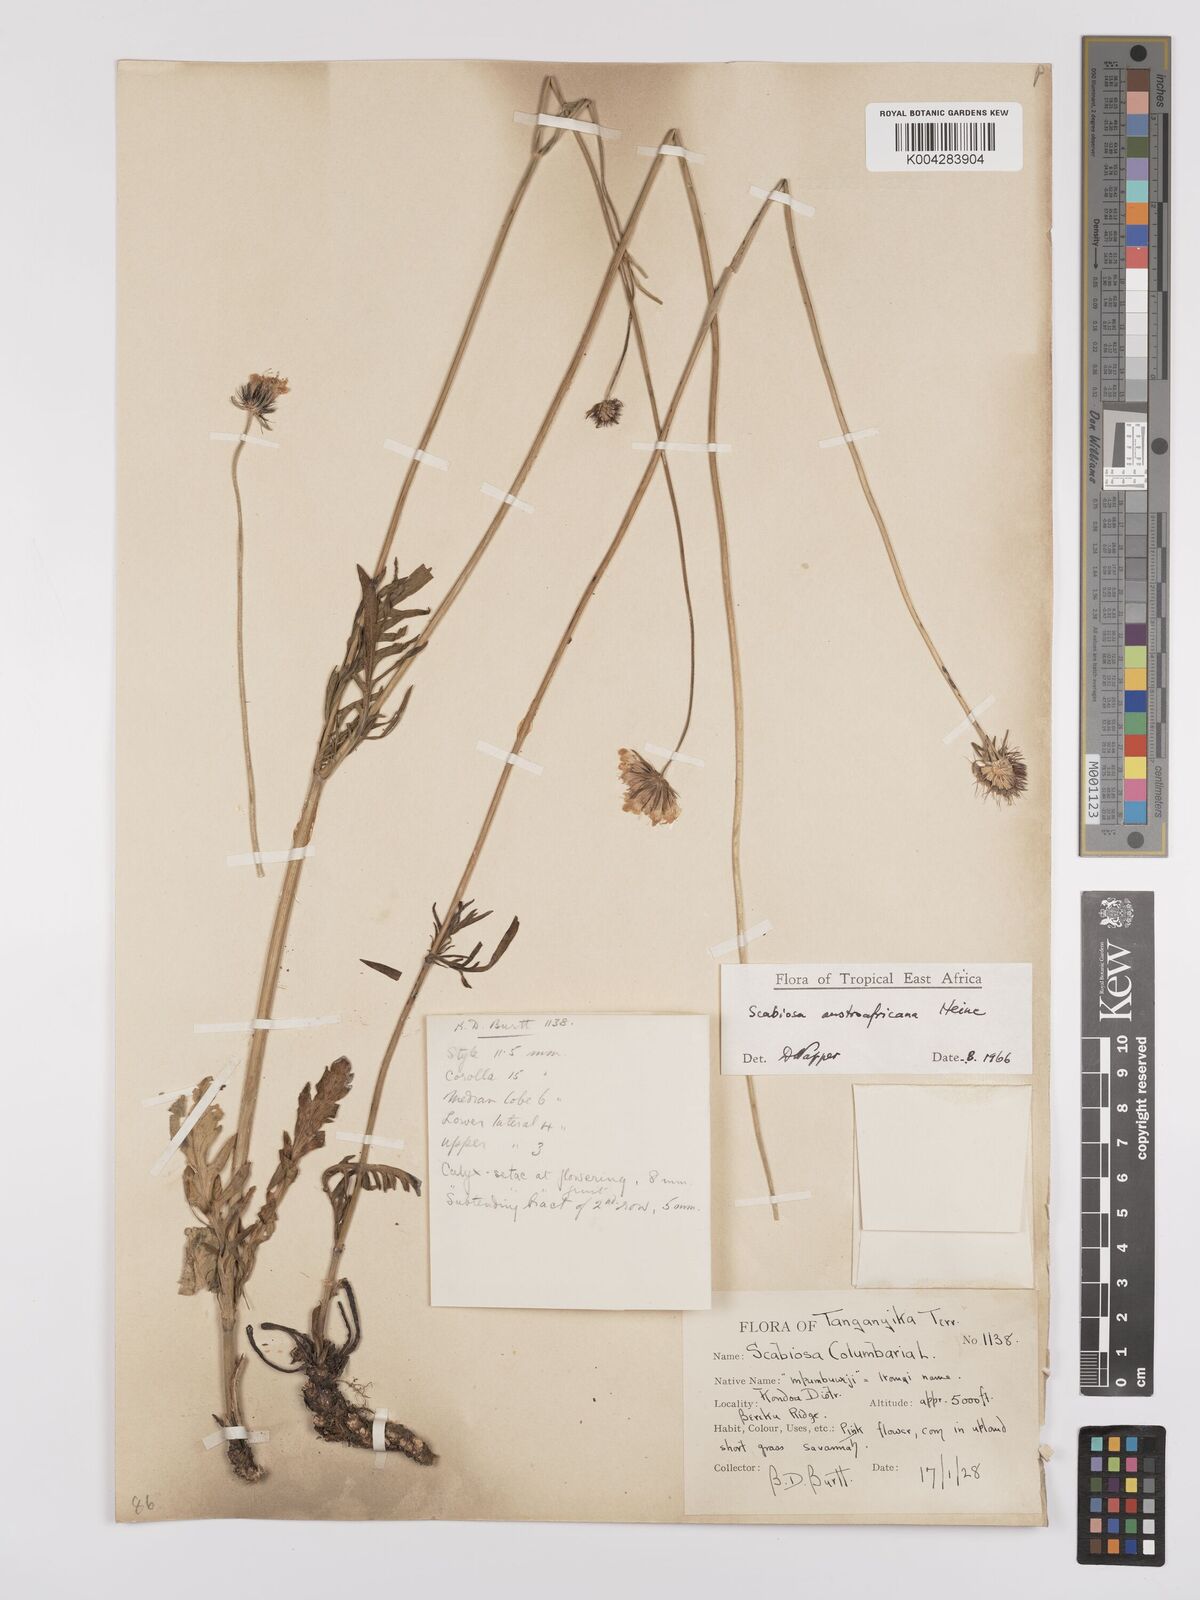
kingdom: Plantae
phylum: Tracheophyta
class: Magnoliopsida
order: Dipsacales
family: Caprifoliaceae
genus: Scabiosa
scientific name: Scabiosa austroafricana
